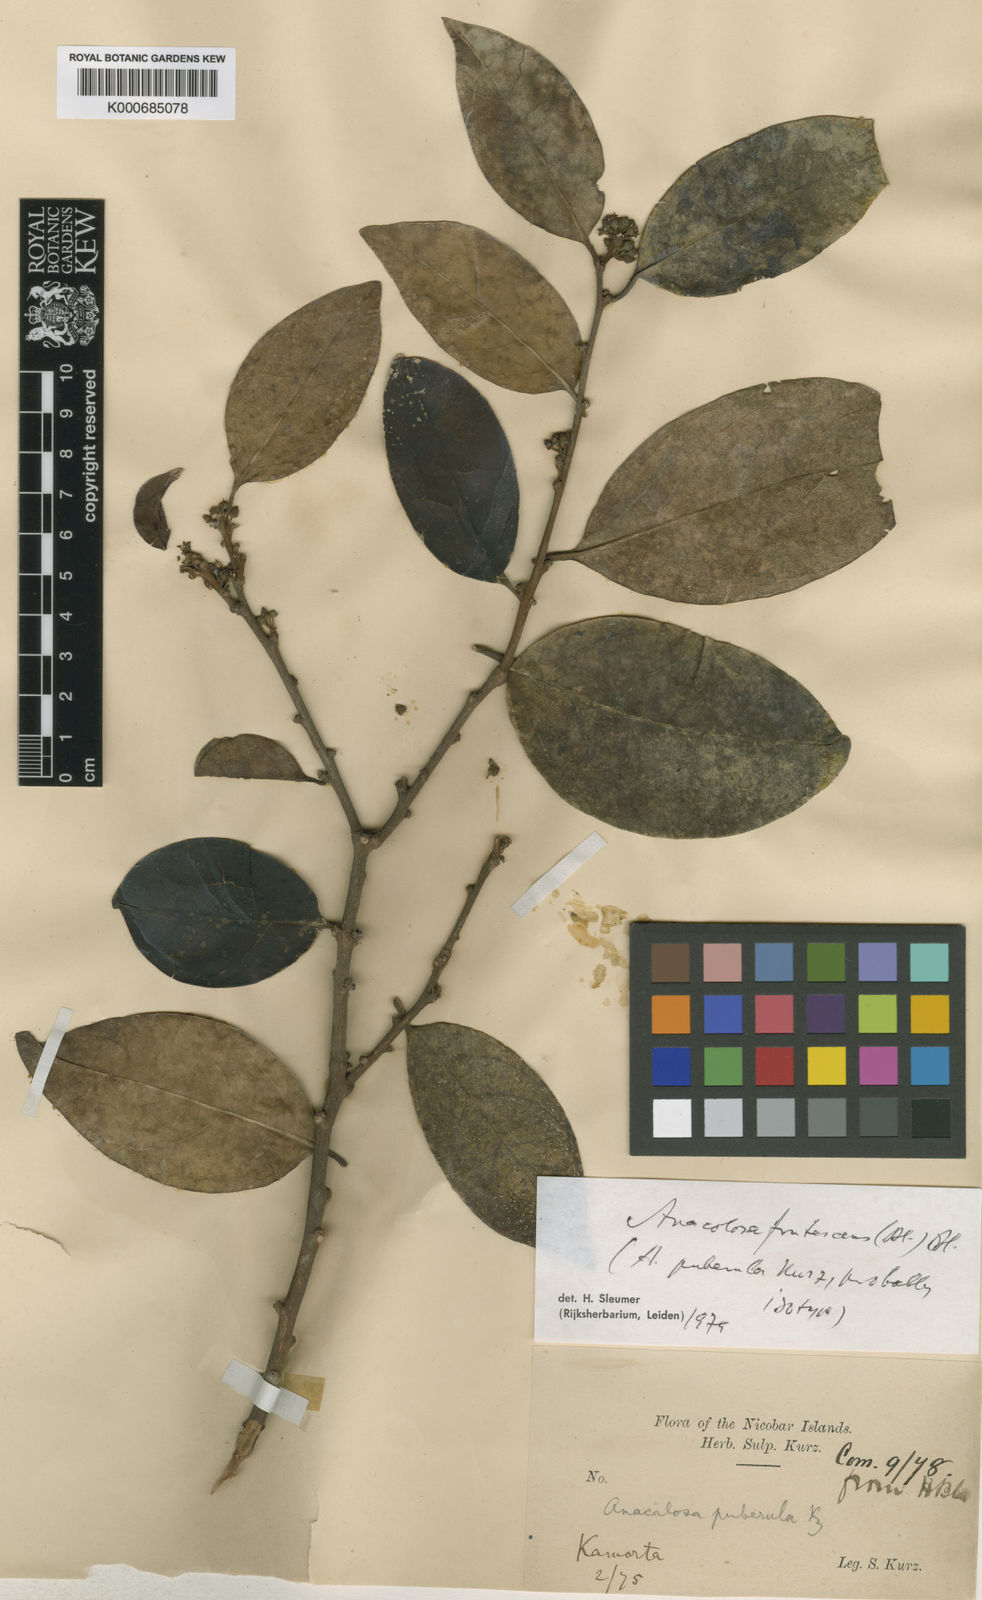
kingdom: Plantae
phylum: Tracheophyta
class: Magnoliopsida
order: Santalales
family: Aptandraceae
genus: Anacolosa
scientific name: Anacolosa frutescens
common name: Galo nut
